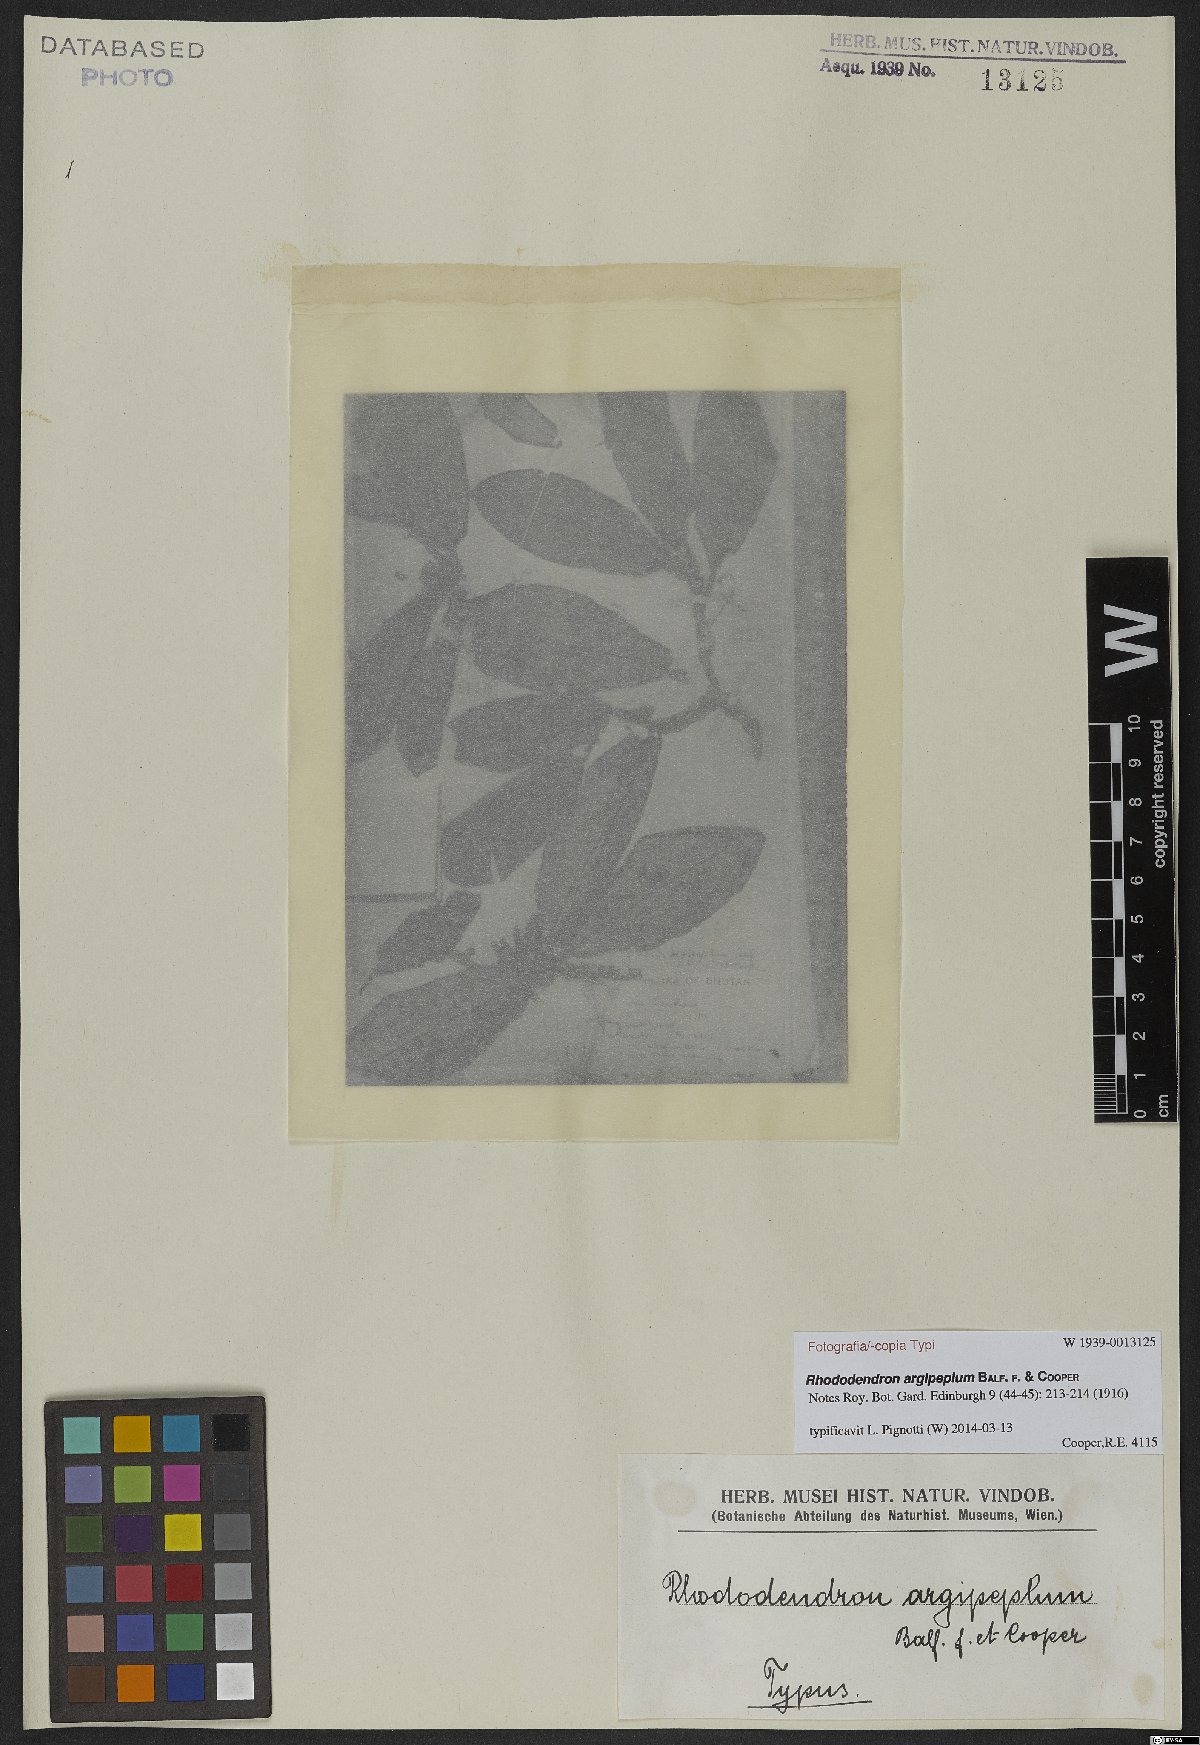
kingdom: Plantae
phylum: Tracheophyta
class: Magnoliopsida
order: Ericales
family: Ericaceae
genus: Rhododendron
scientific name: Rhododendron argipeplum
